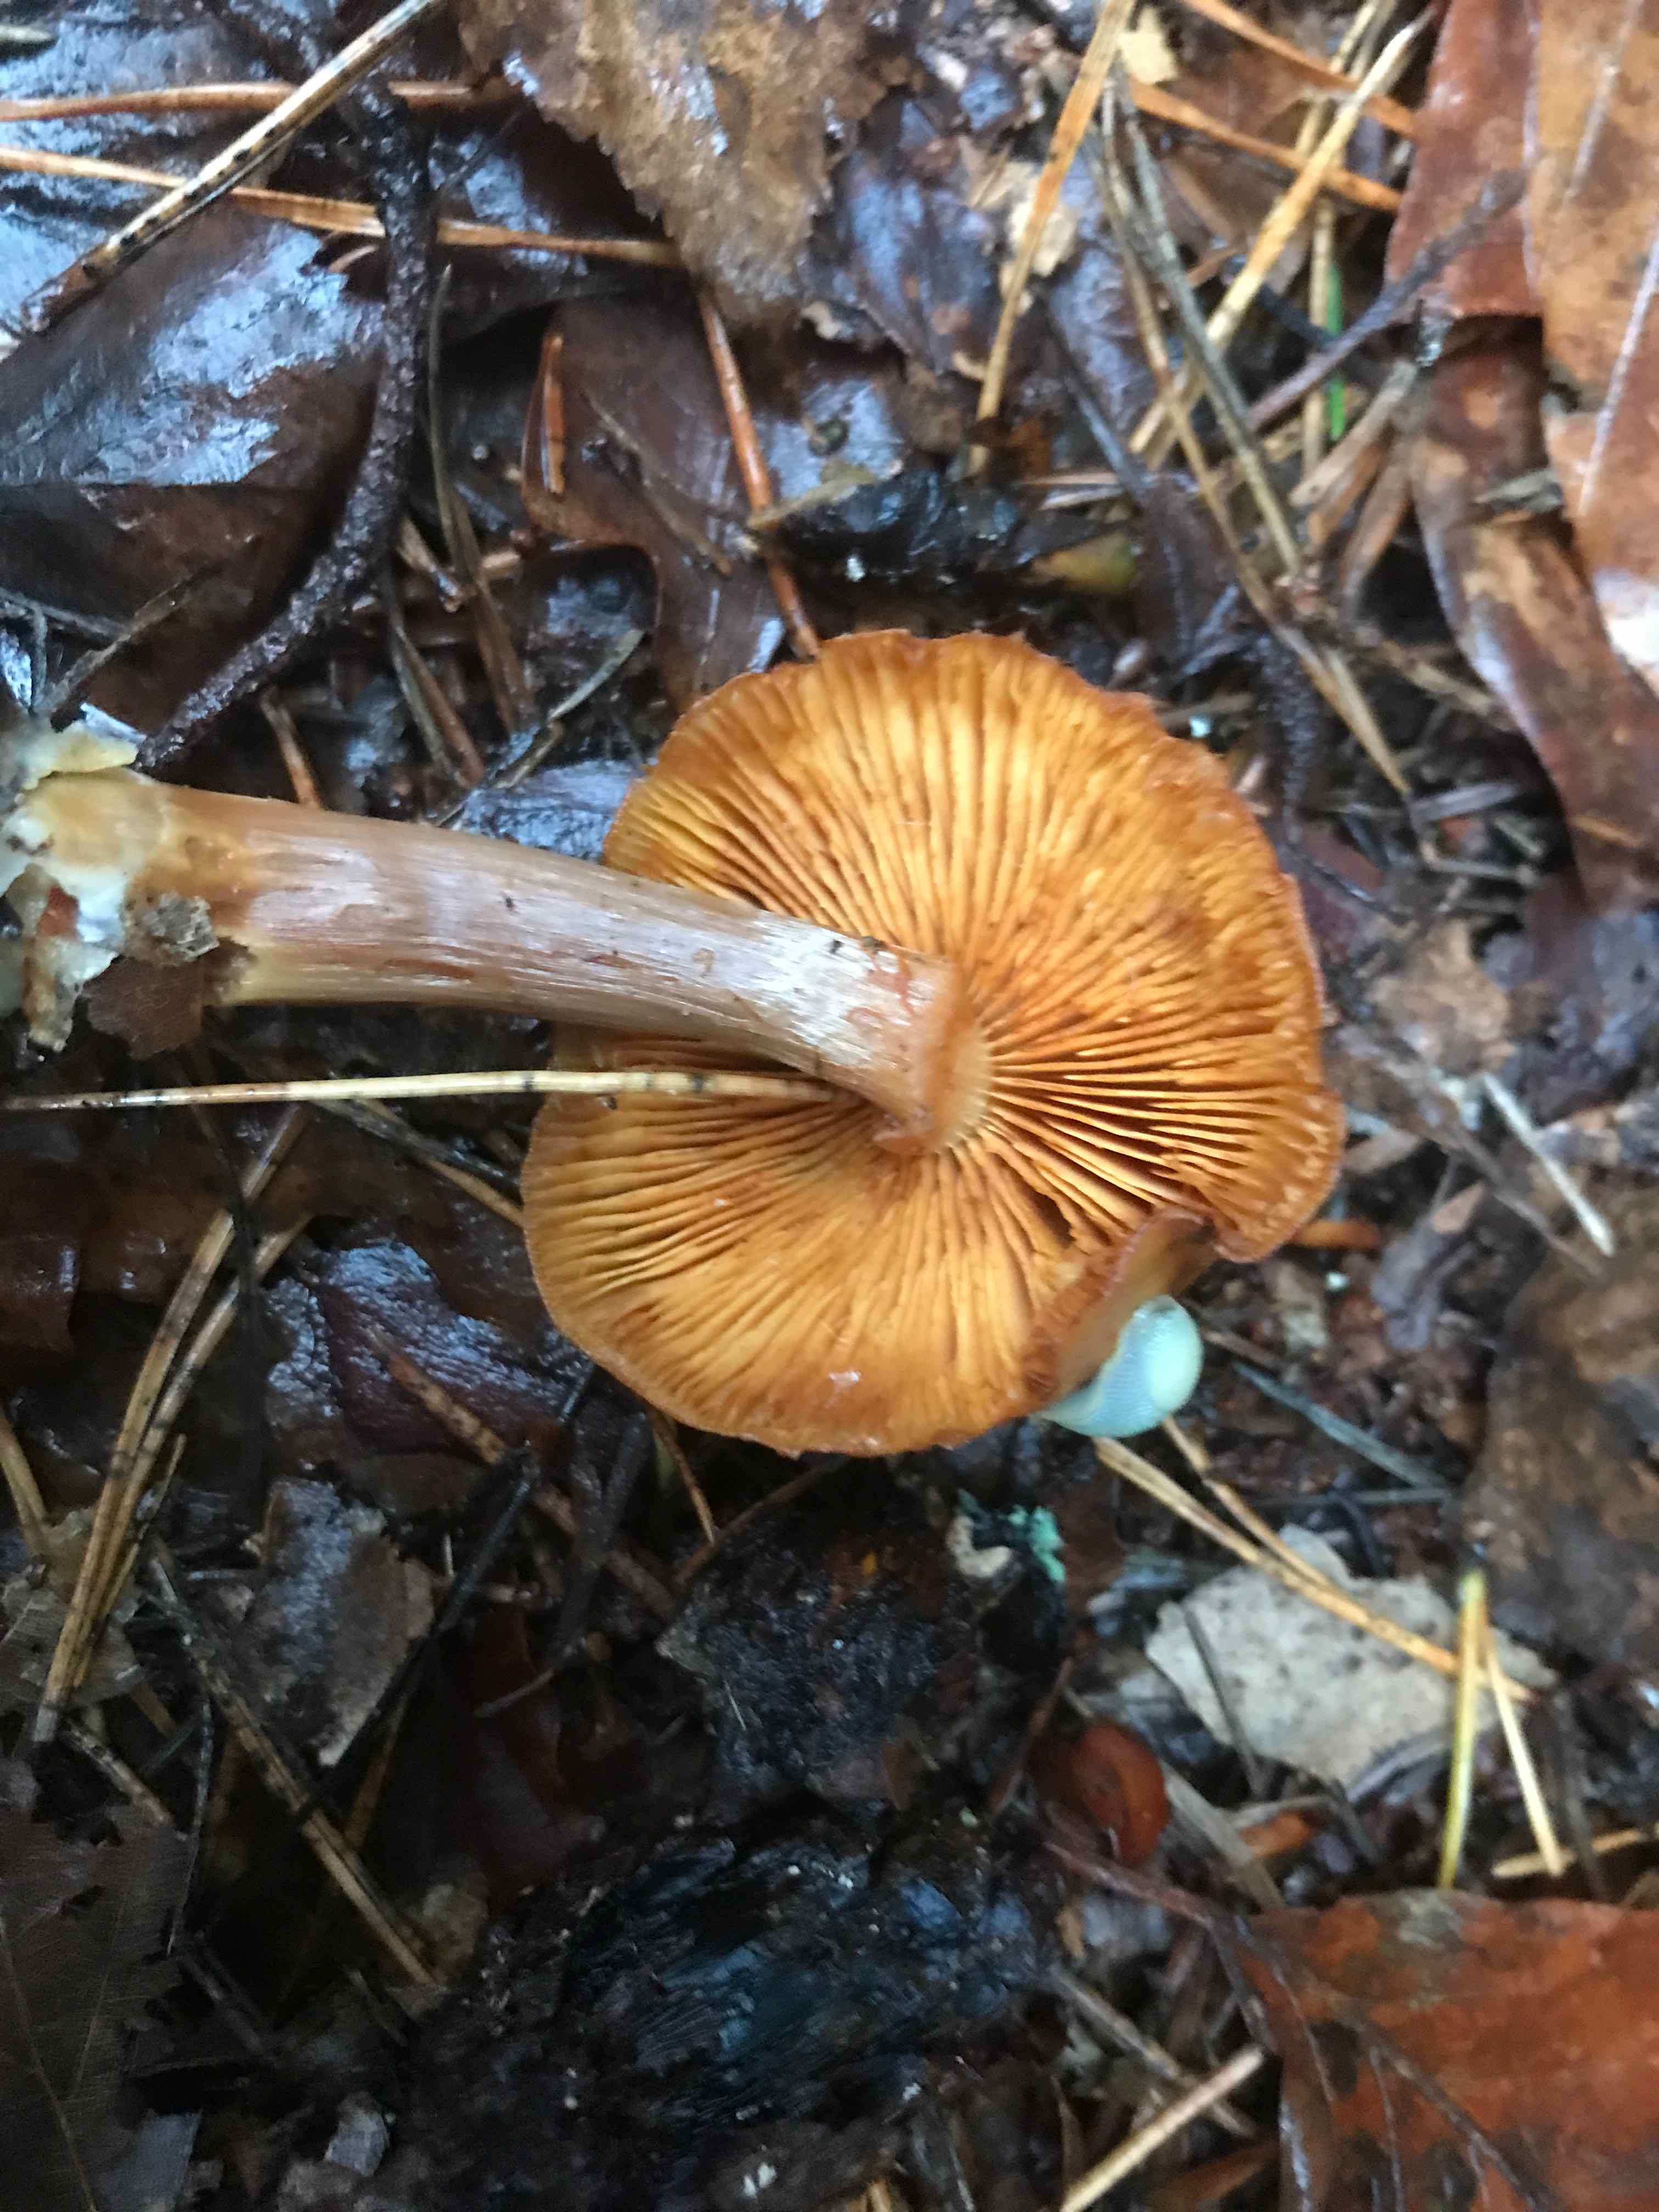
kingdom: Fungi
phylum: Basidiomycota
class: Agaricomycetes
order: Agaricales
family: Hymenogastraceae
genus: Gymnopilus
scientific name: Gymnopilus penetrans
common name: plettet flammehat
